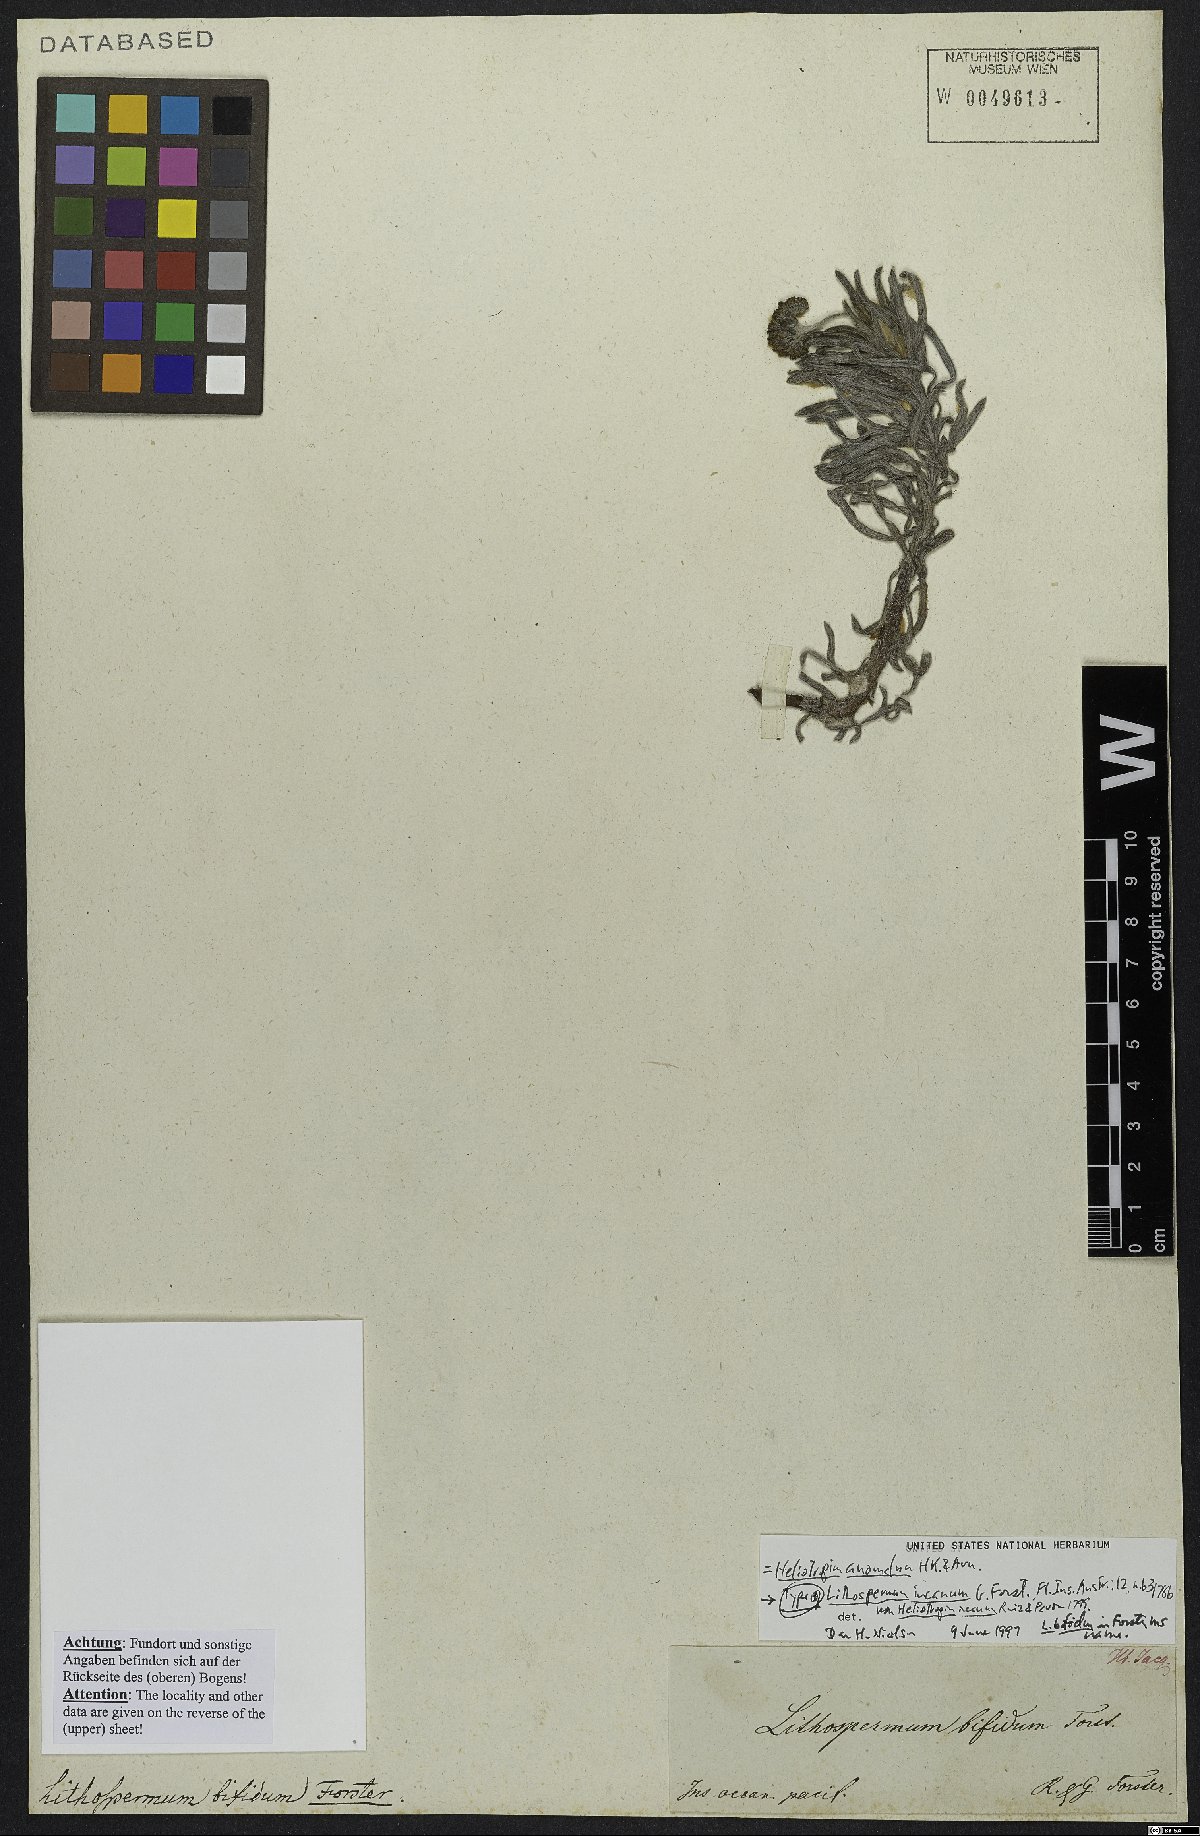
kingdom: Plantae
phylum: Tracheophyta
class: Magnoliopsida
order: Boraginales
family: Heliotropiaceae
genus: Heliotropium
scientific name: Heliotropium anomalum
